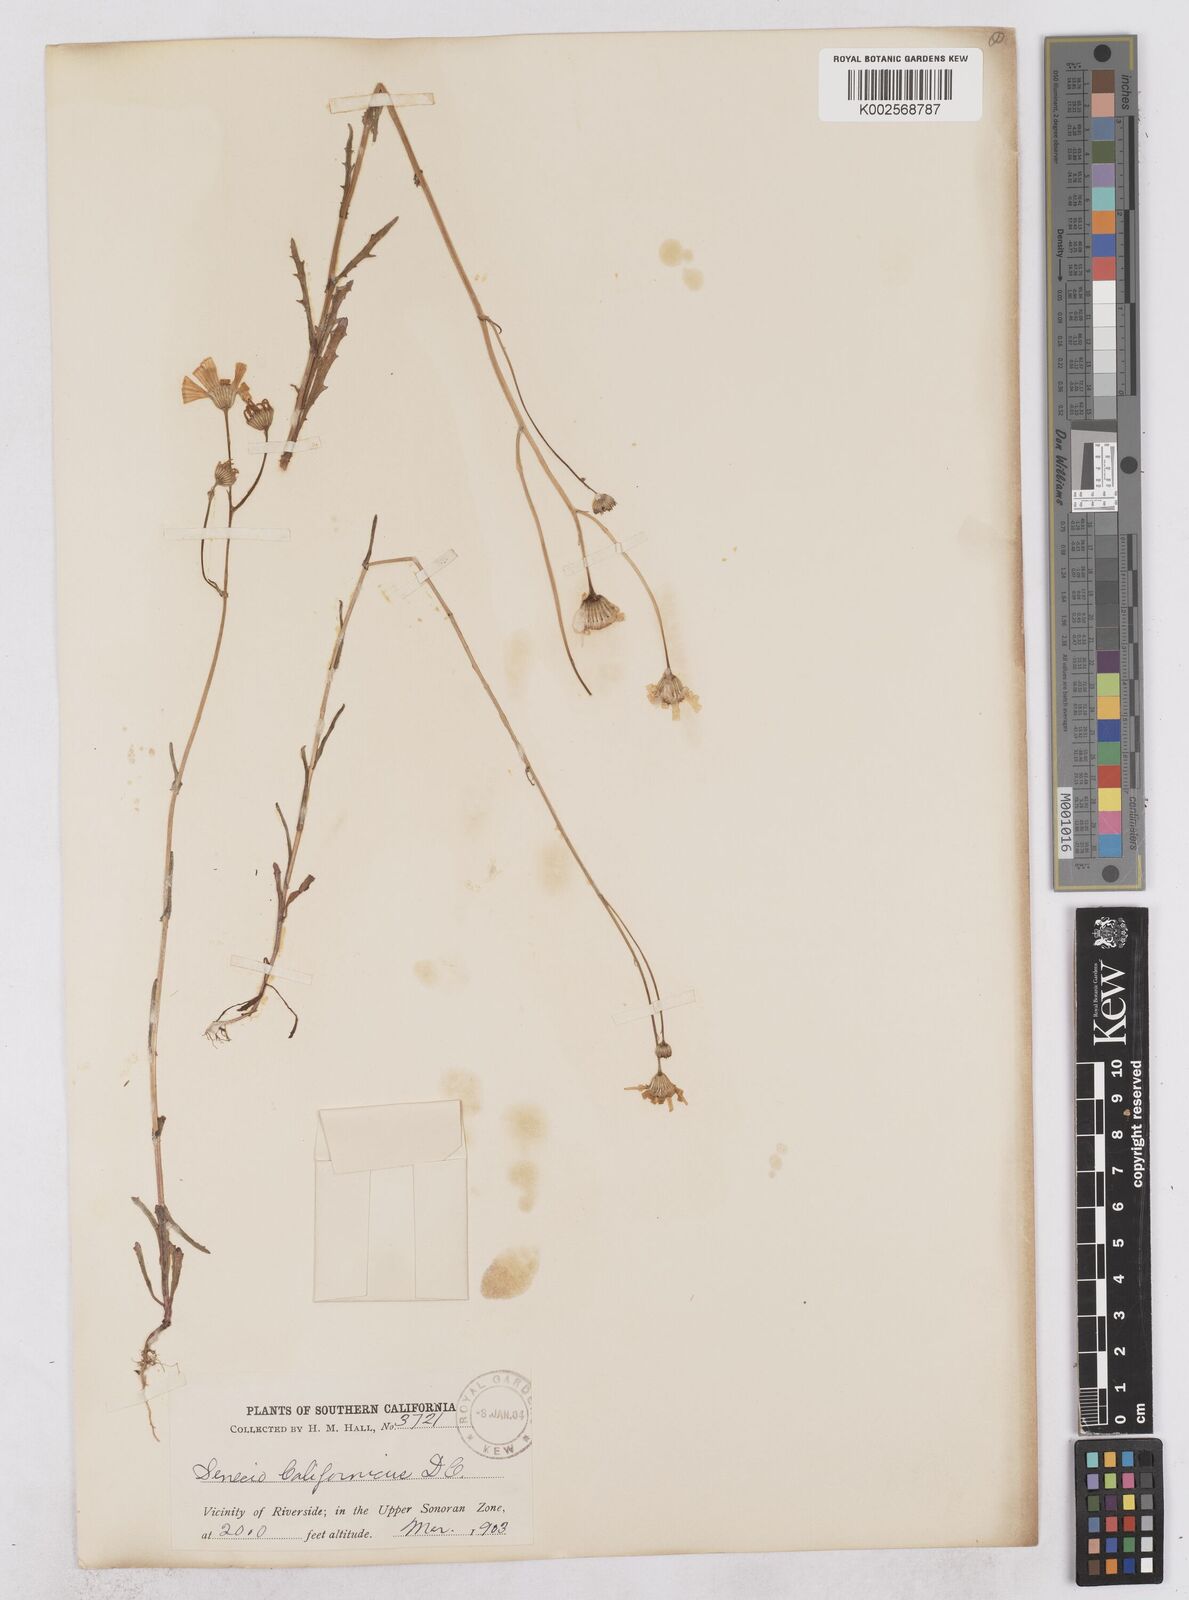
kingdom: Plantae
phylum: Tracheophyta
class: Magnoliopsida
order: Asterales
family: Asteraceae
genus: Senecio
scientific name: Senecio californicus
